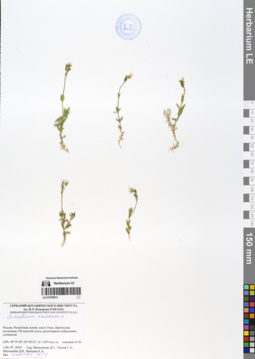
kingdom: Plantae
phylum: Tracheophyta
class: Magnoliopsida
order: Caryophyllales
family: Caryophyllaceae
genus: Cerastium
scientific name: Cerastium arvense
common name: Field mouse-ear
